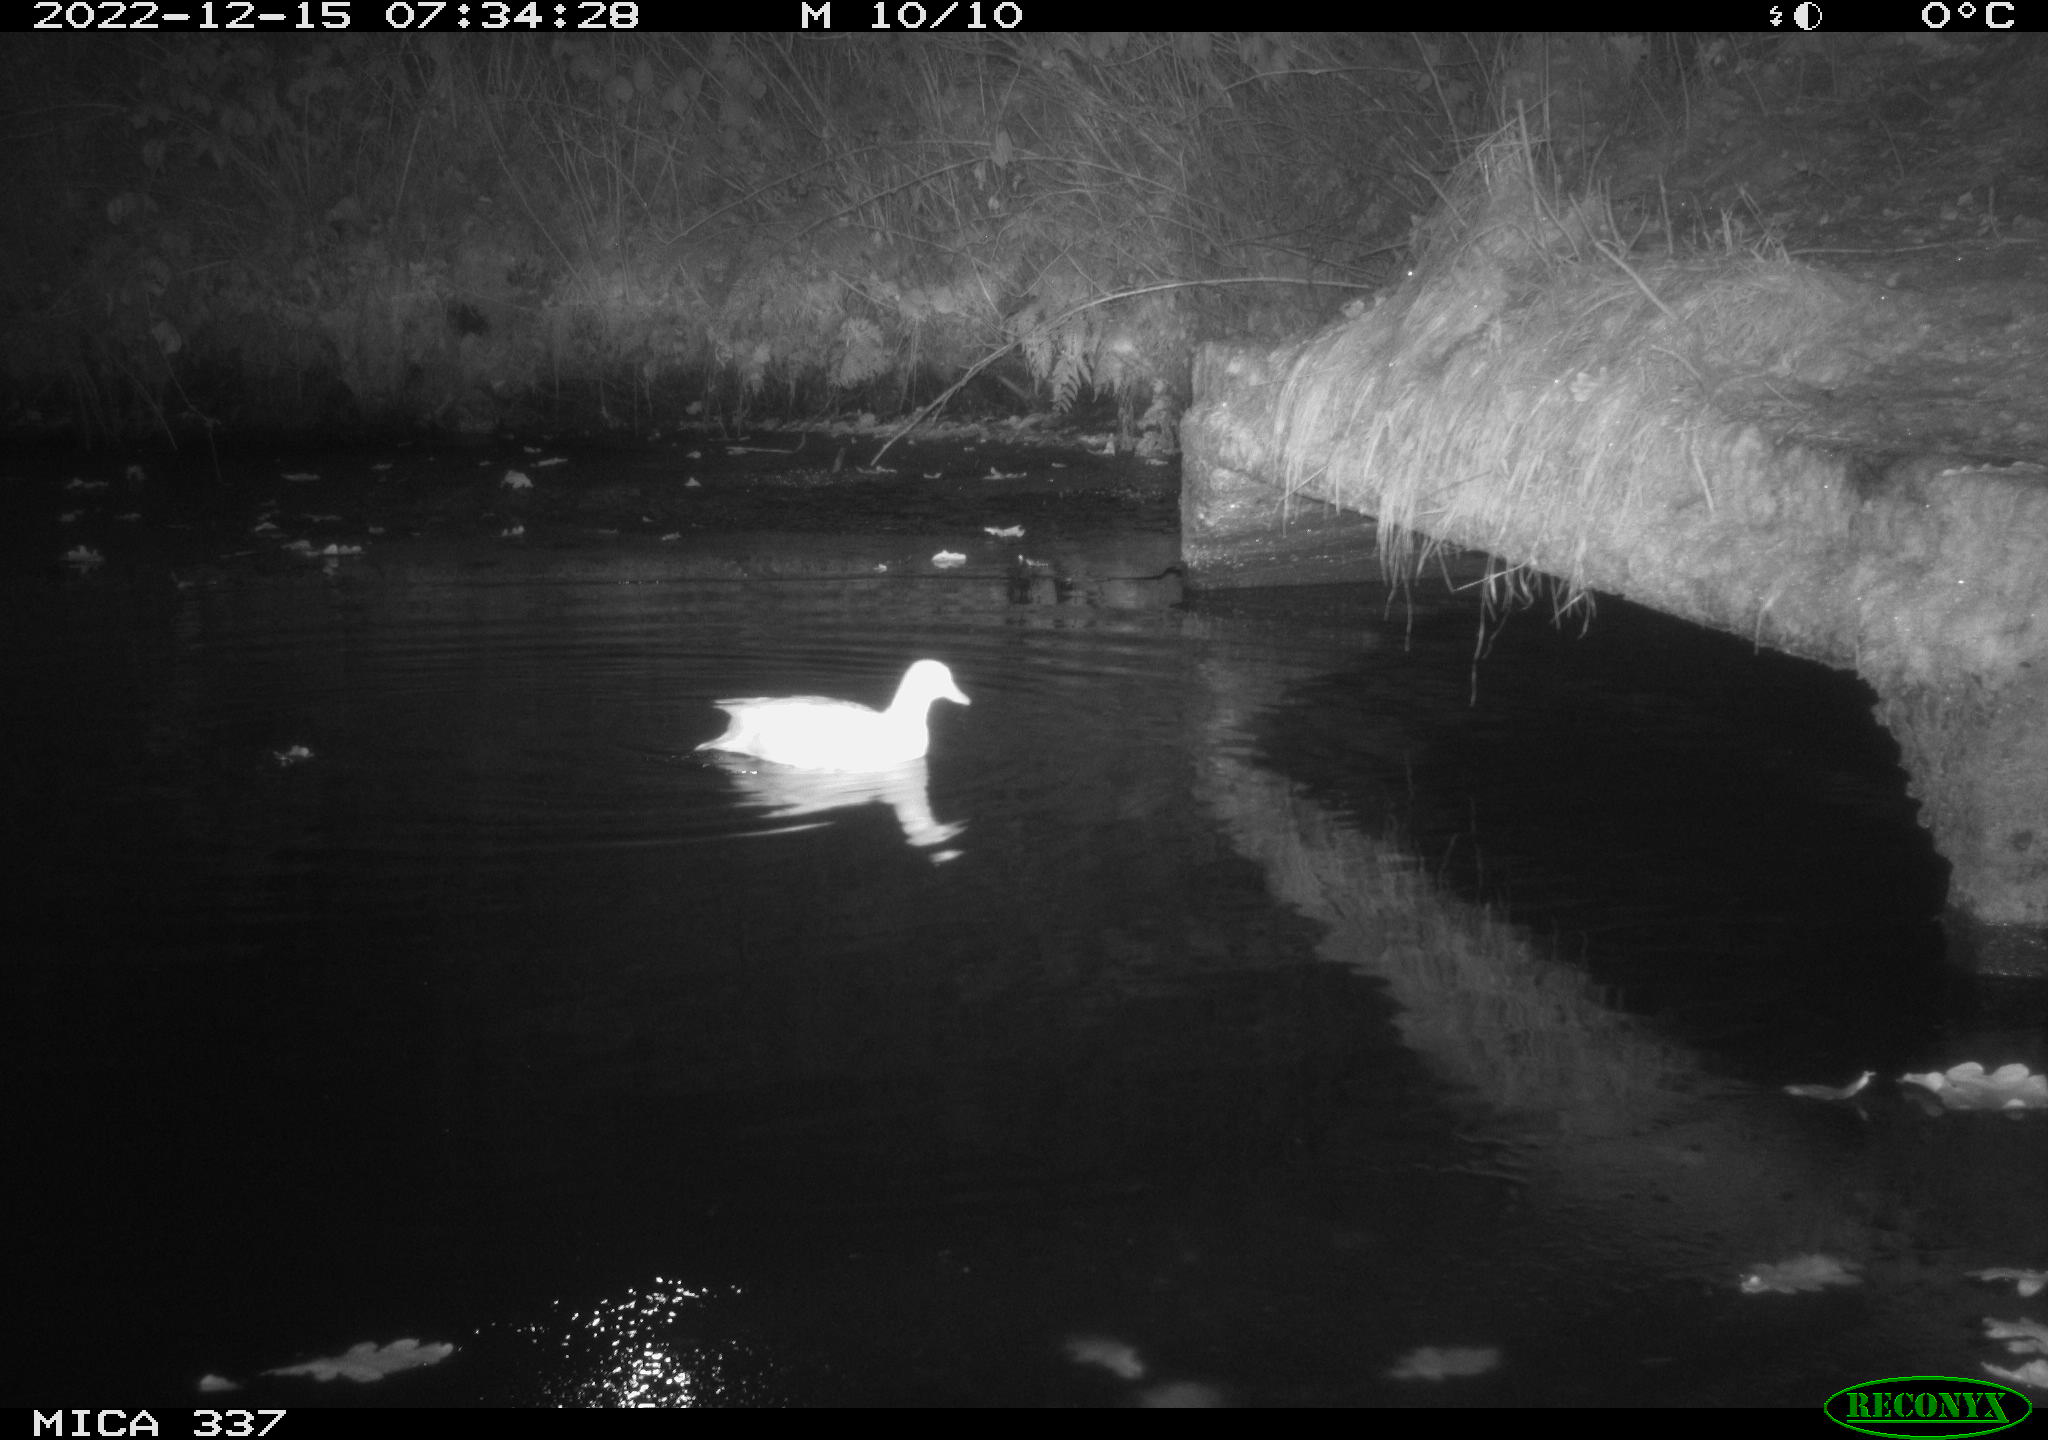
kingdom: Animalia
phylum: Chordata
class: Aves
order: Anseriformes
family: Anatidae
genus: Anas
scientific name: Anas
